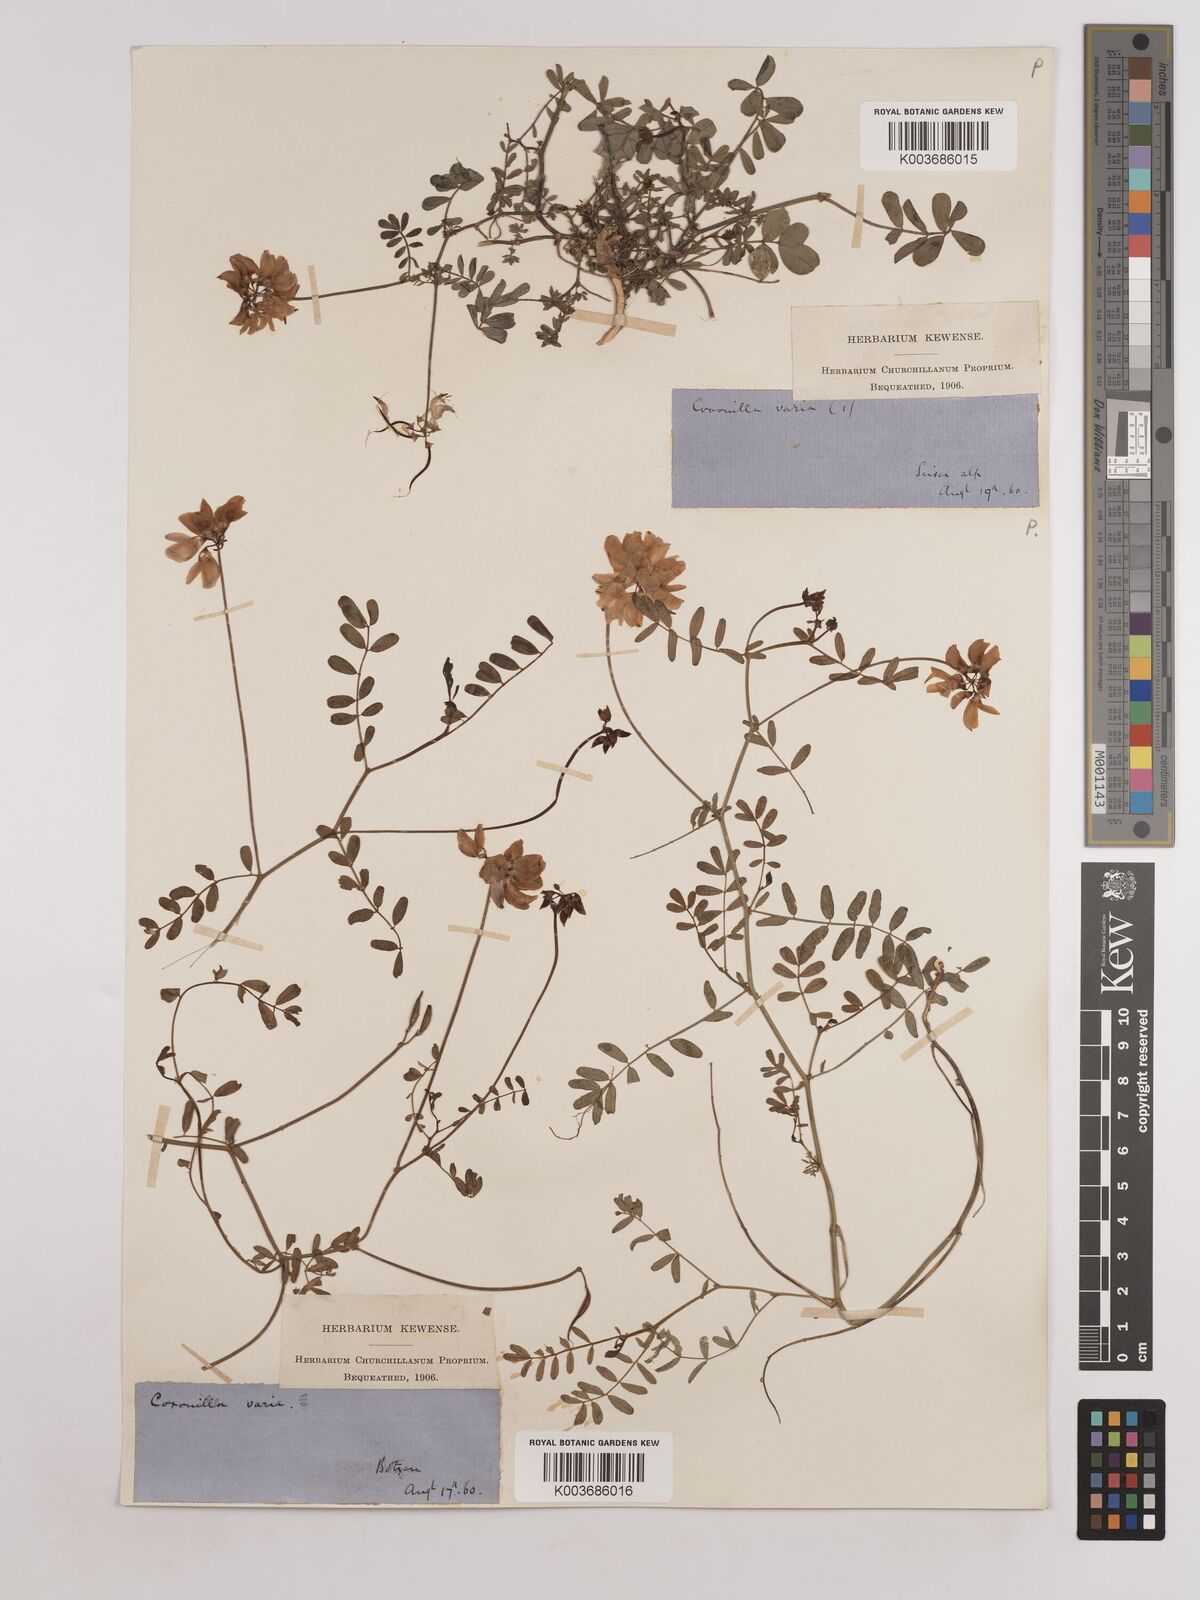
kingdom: Plantae
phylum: Tracheophyta
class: Magnoliopsida
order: Fabales
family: Fabaceae
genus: Coronilla
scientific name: Coronilla varia
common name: Crownvetch
